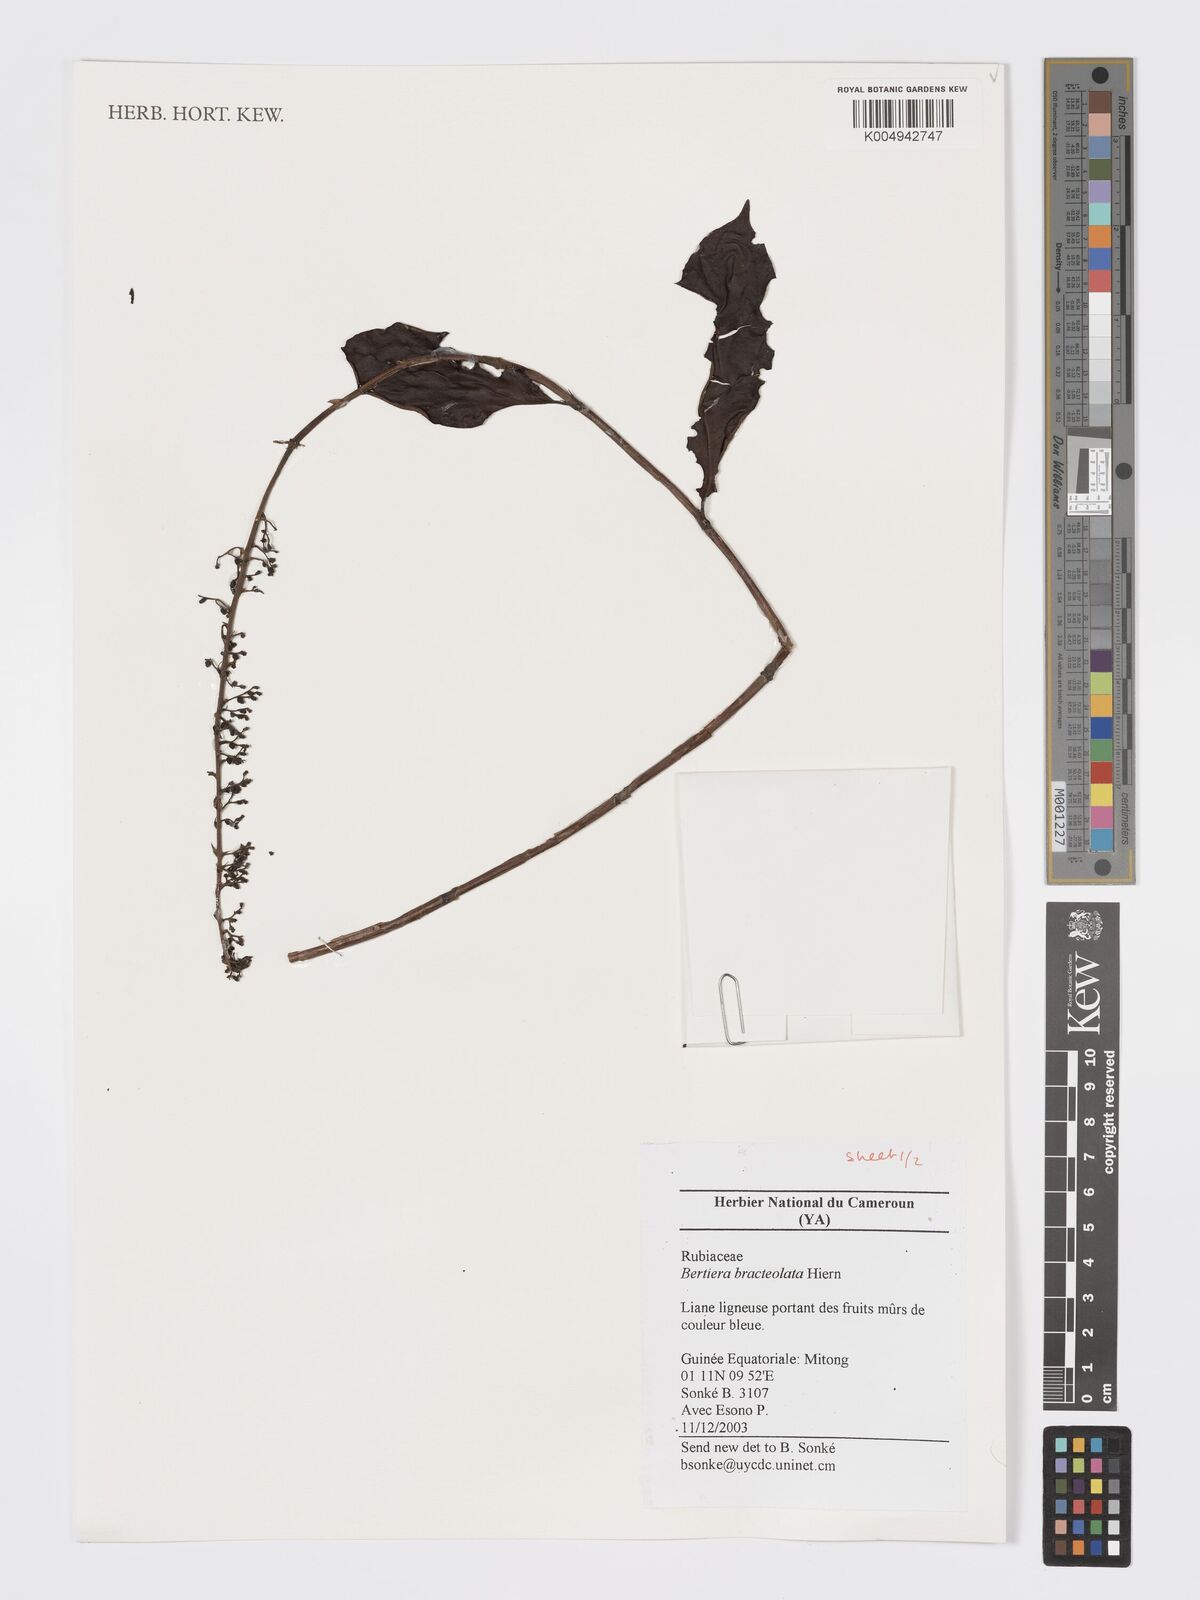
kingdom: Plantae
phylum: Tracheophyta
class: Magnoliopsida
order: Gentianales
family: Rubiaceae
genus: Bertiera
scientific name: Bertiera bracteolata
